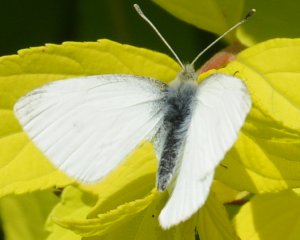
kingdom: Animalia
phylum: Arthropoda
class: Insecta
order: Lepidoptera
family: Pieridae
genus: Pieris
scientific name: Pieris oleracea
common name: Mustard White
